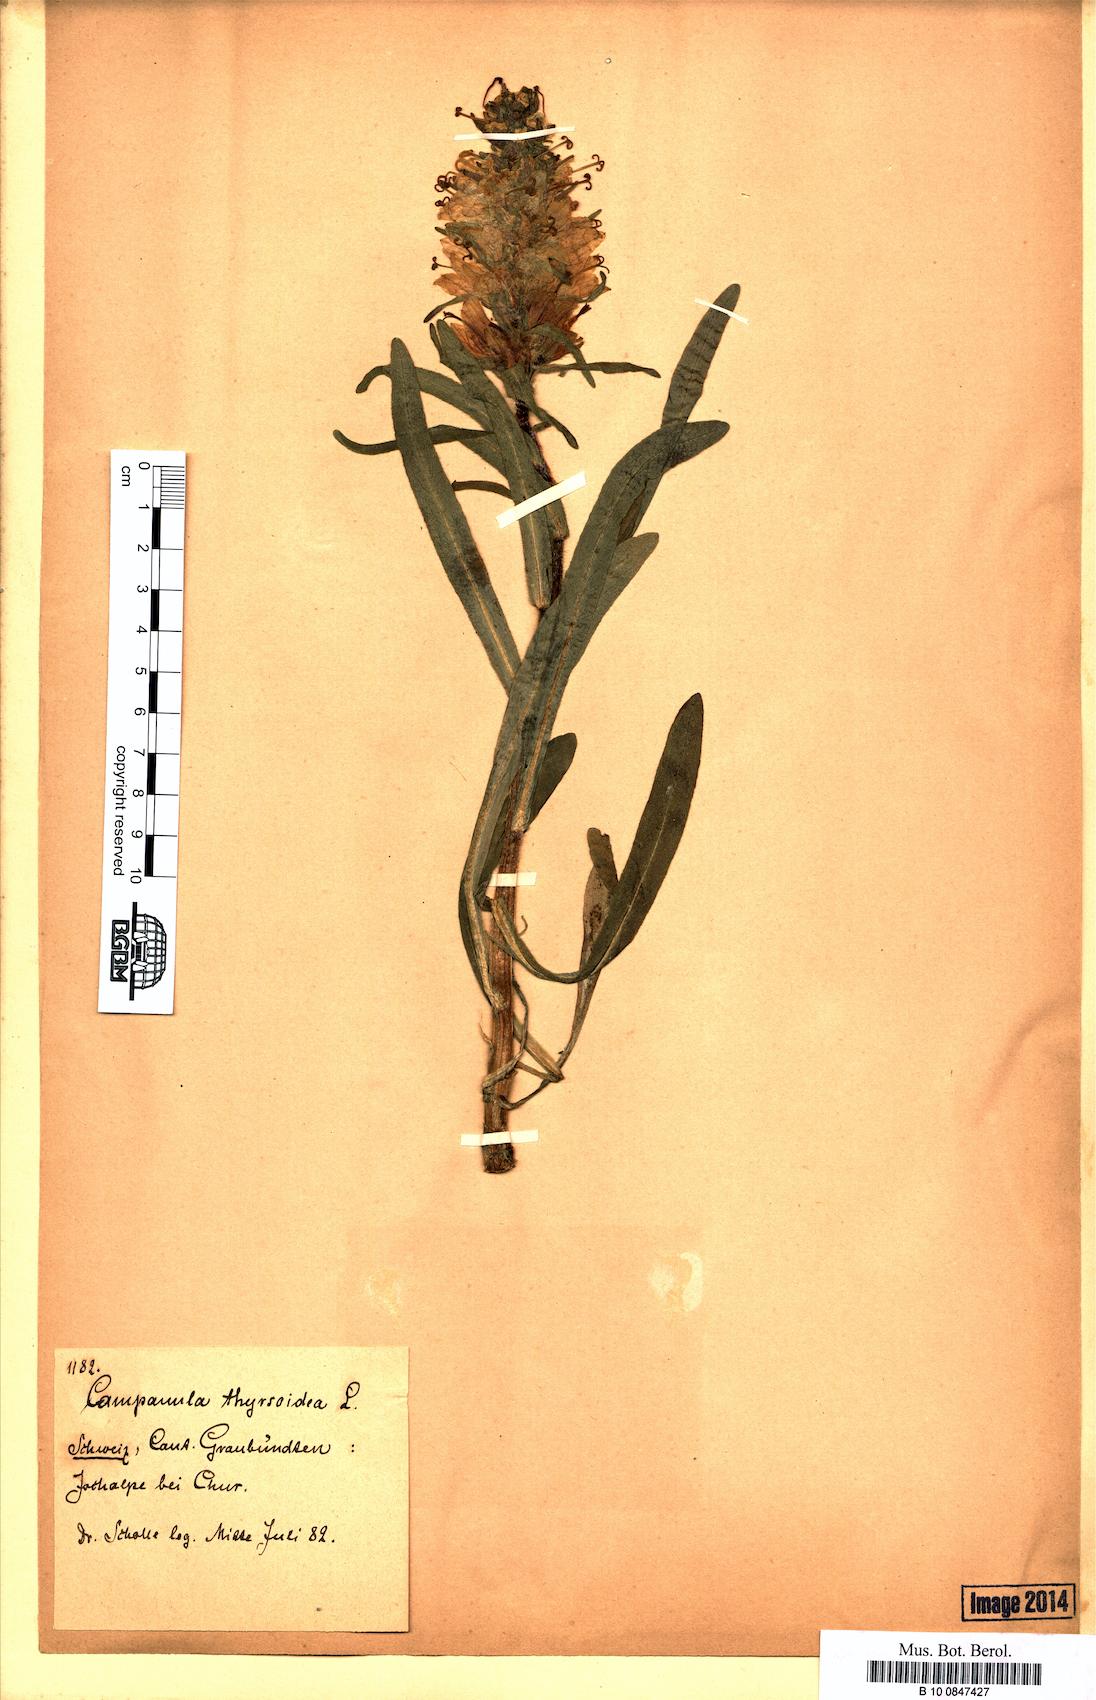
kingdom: Plantae
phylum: Tracheophyta
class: Magnoliopsida
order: Asterales
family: Campanulaceae
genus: Campanula
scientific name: Campanula thyrsoides
